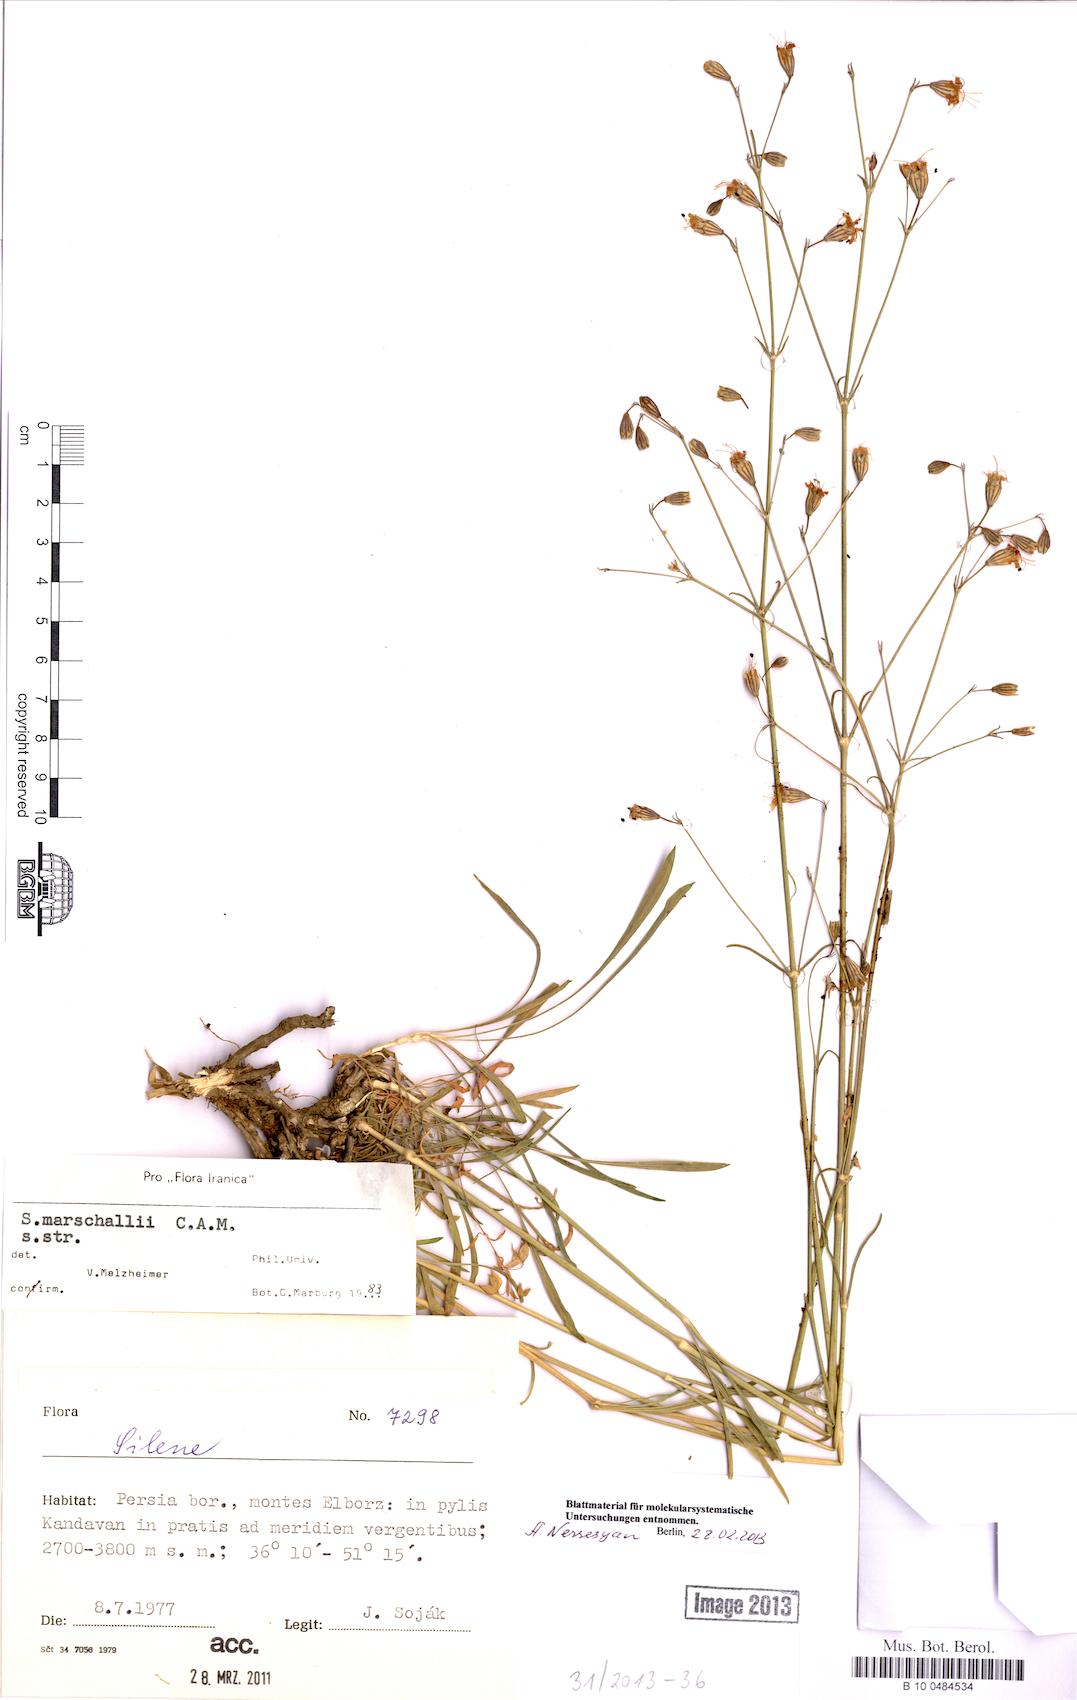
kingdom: Plantae
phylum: Tracheophyta
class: Magnoliopsida
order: Caryophyllales
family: Caryophyllaceae
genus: Silene
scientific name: Silene marschallii
